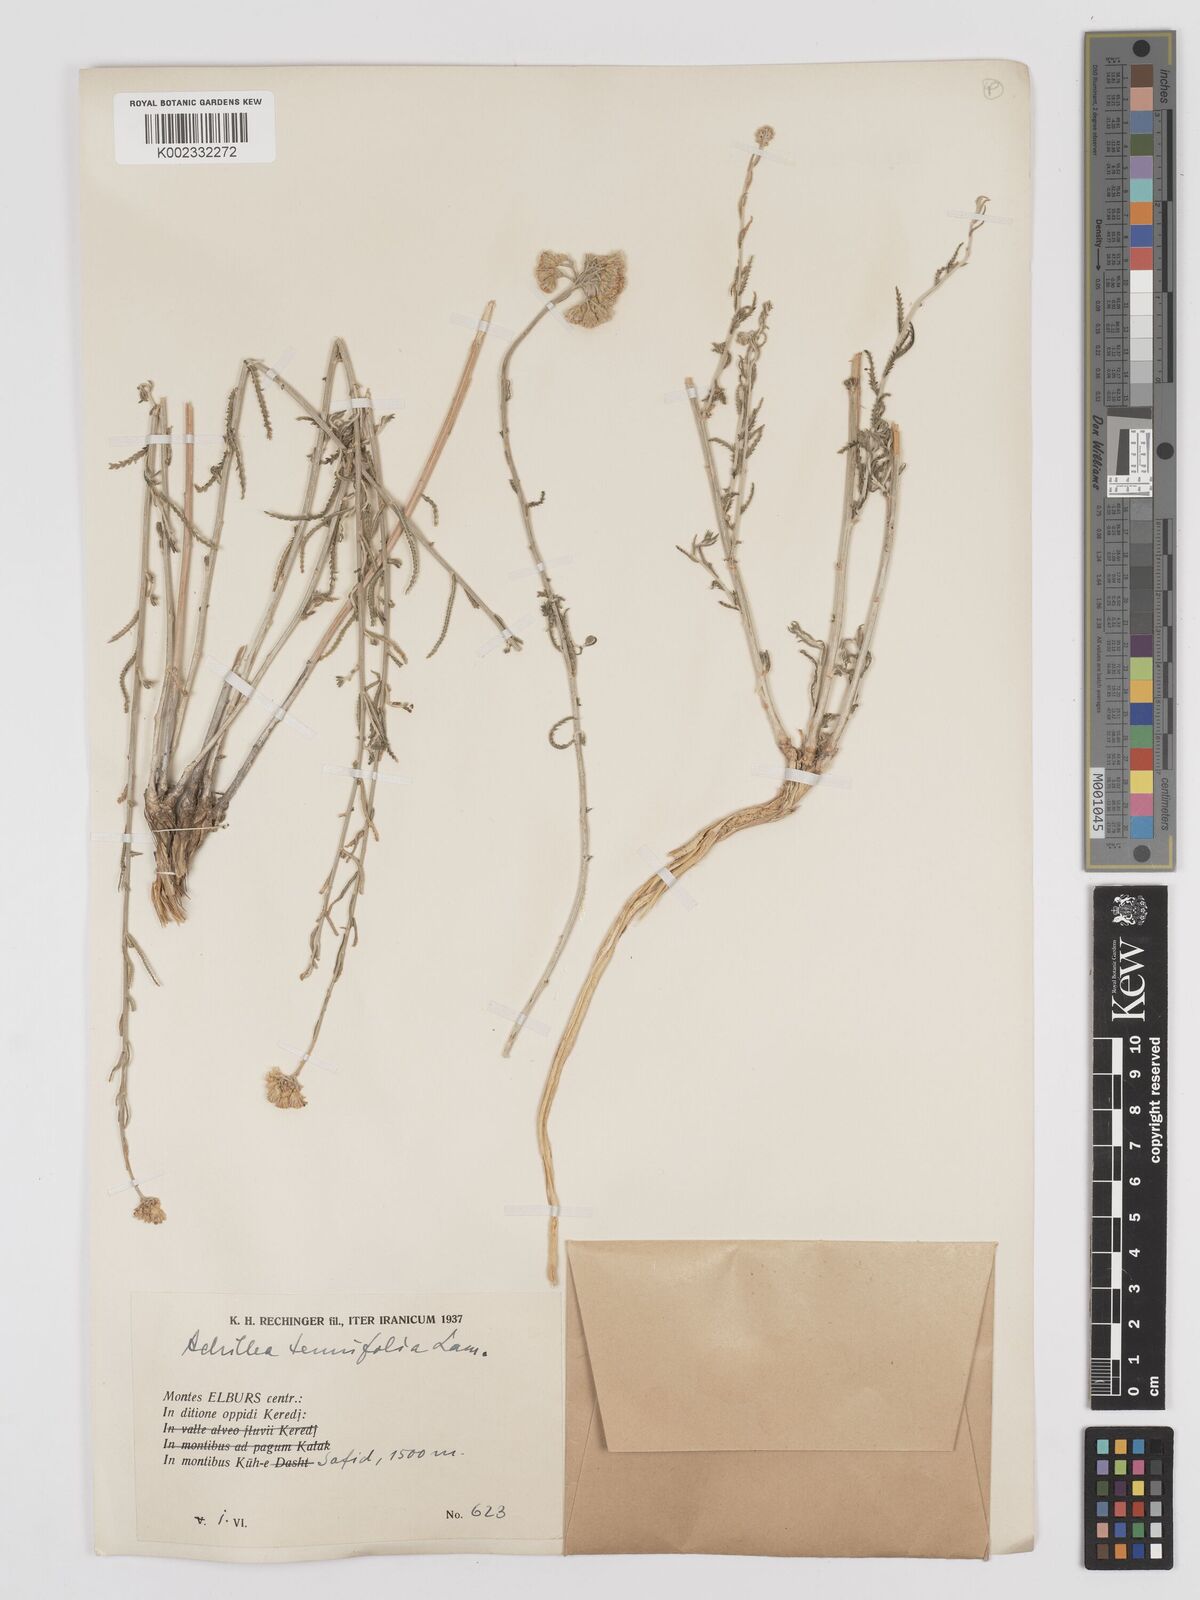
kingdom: Plantae
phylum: Tracheophyta
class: Magnoliopsida
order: Asterales
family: Asteraceae
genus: Achillea
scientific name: Achillea tenuifolia
